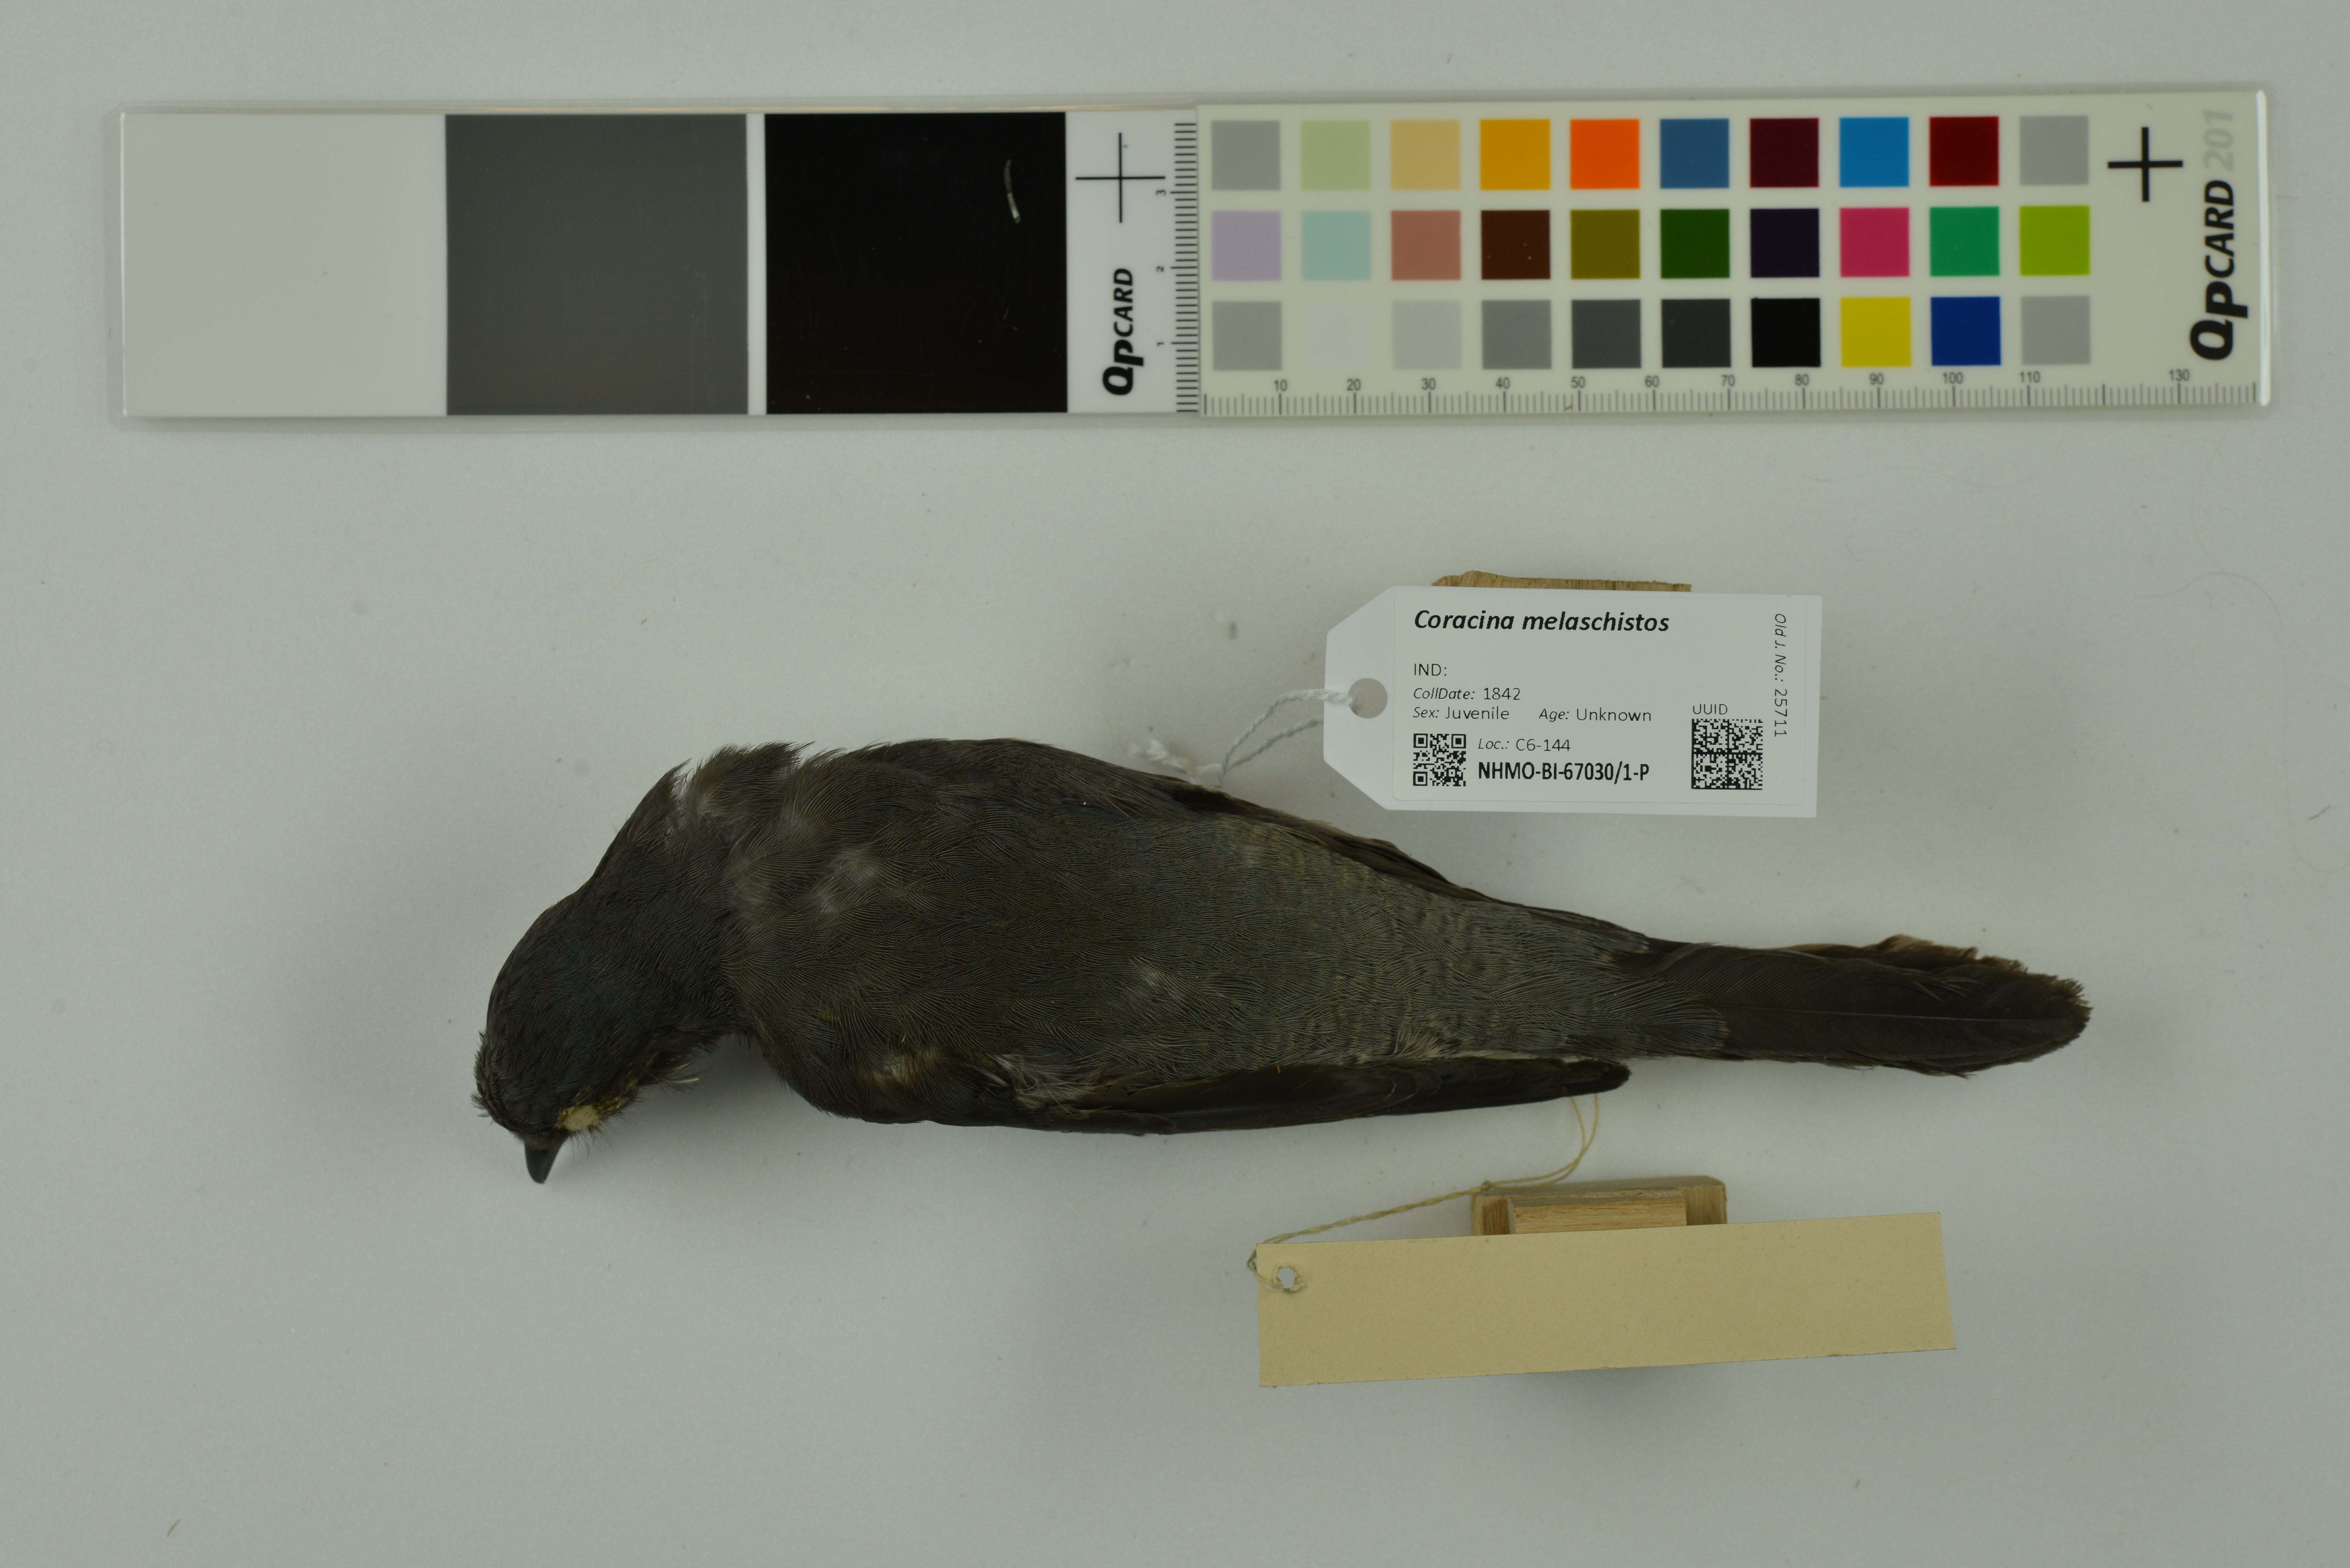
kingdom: Animalia
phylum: Chordata
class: Aves
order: Passeriformes
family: Campephagidae
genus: Coracina
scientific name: Coracina melaschistos
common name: Black-winged cuckooshrike
